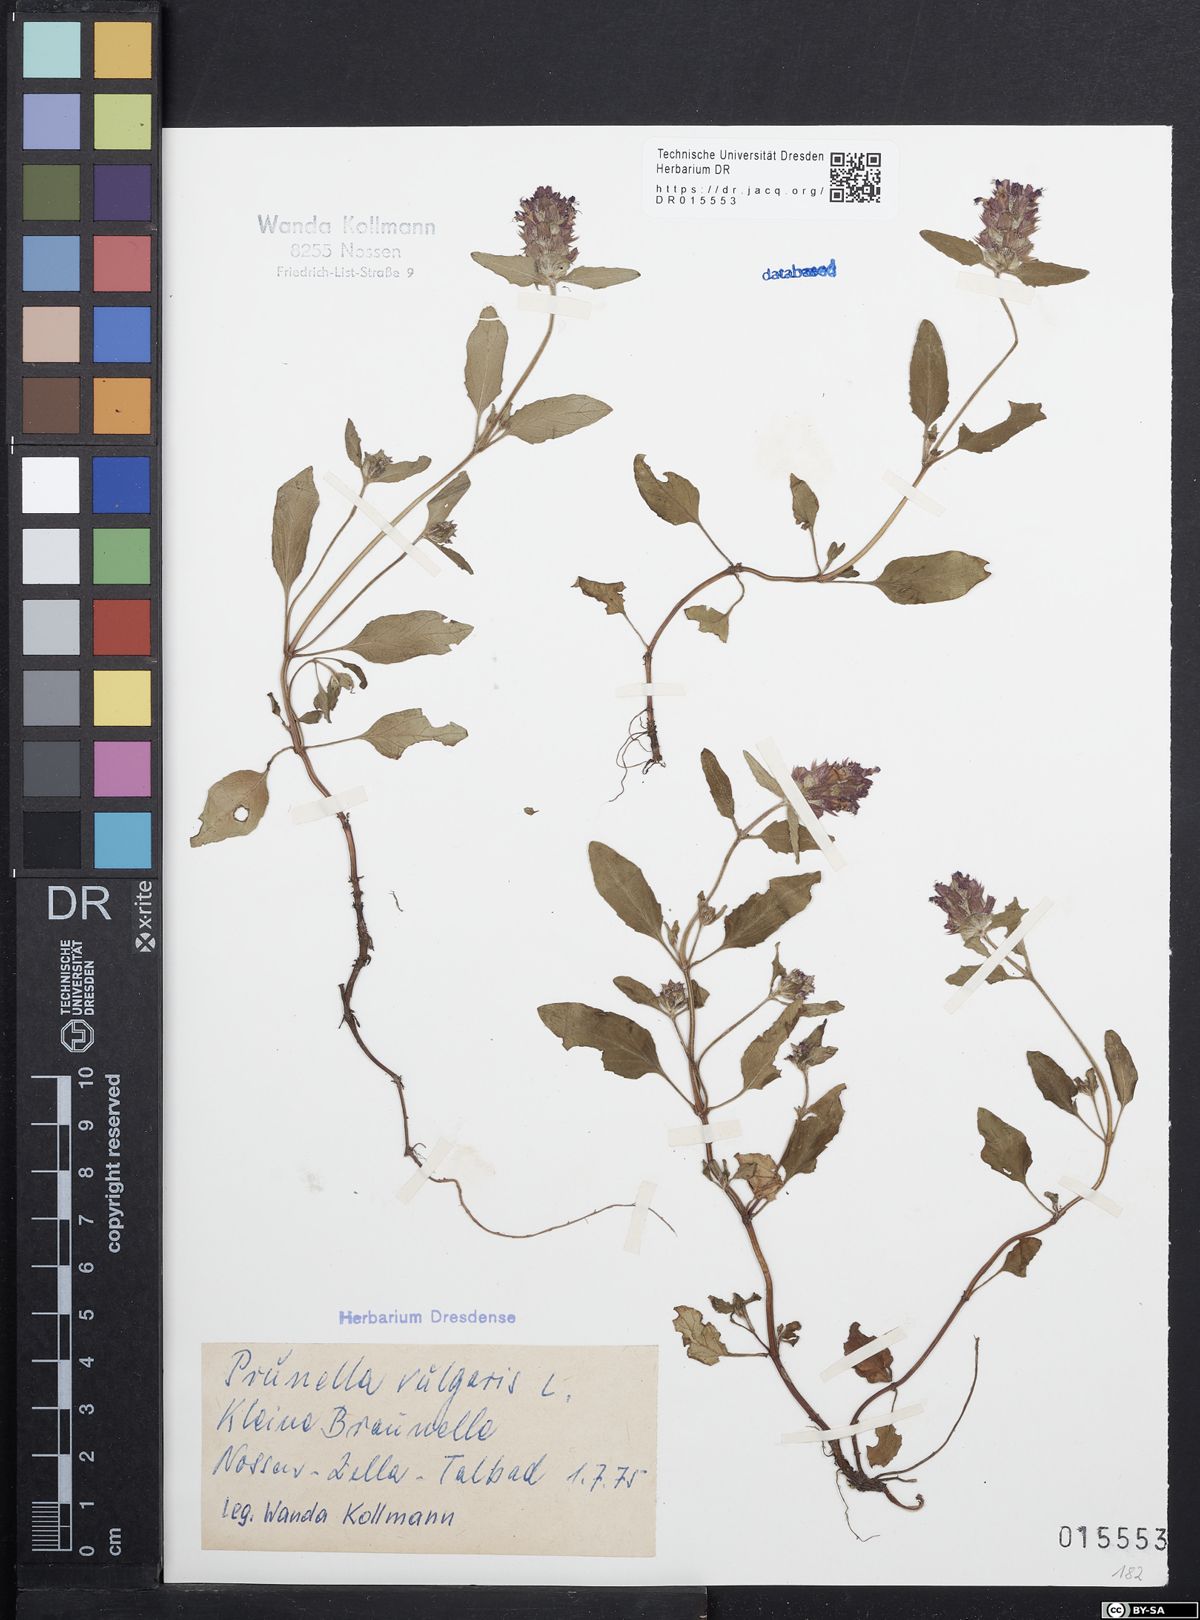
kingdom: Plantae
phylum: Tracheophyta
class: Magnoliopsida
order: Lamiales
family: Lamiaceae
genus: Prunella
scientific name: Prunella vulgaris
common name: Heal-all
